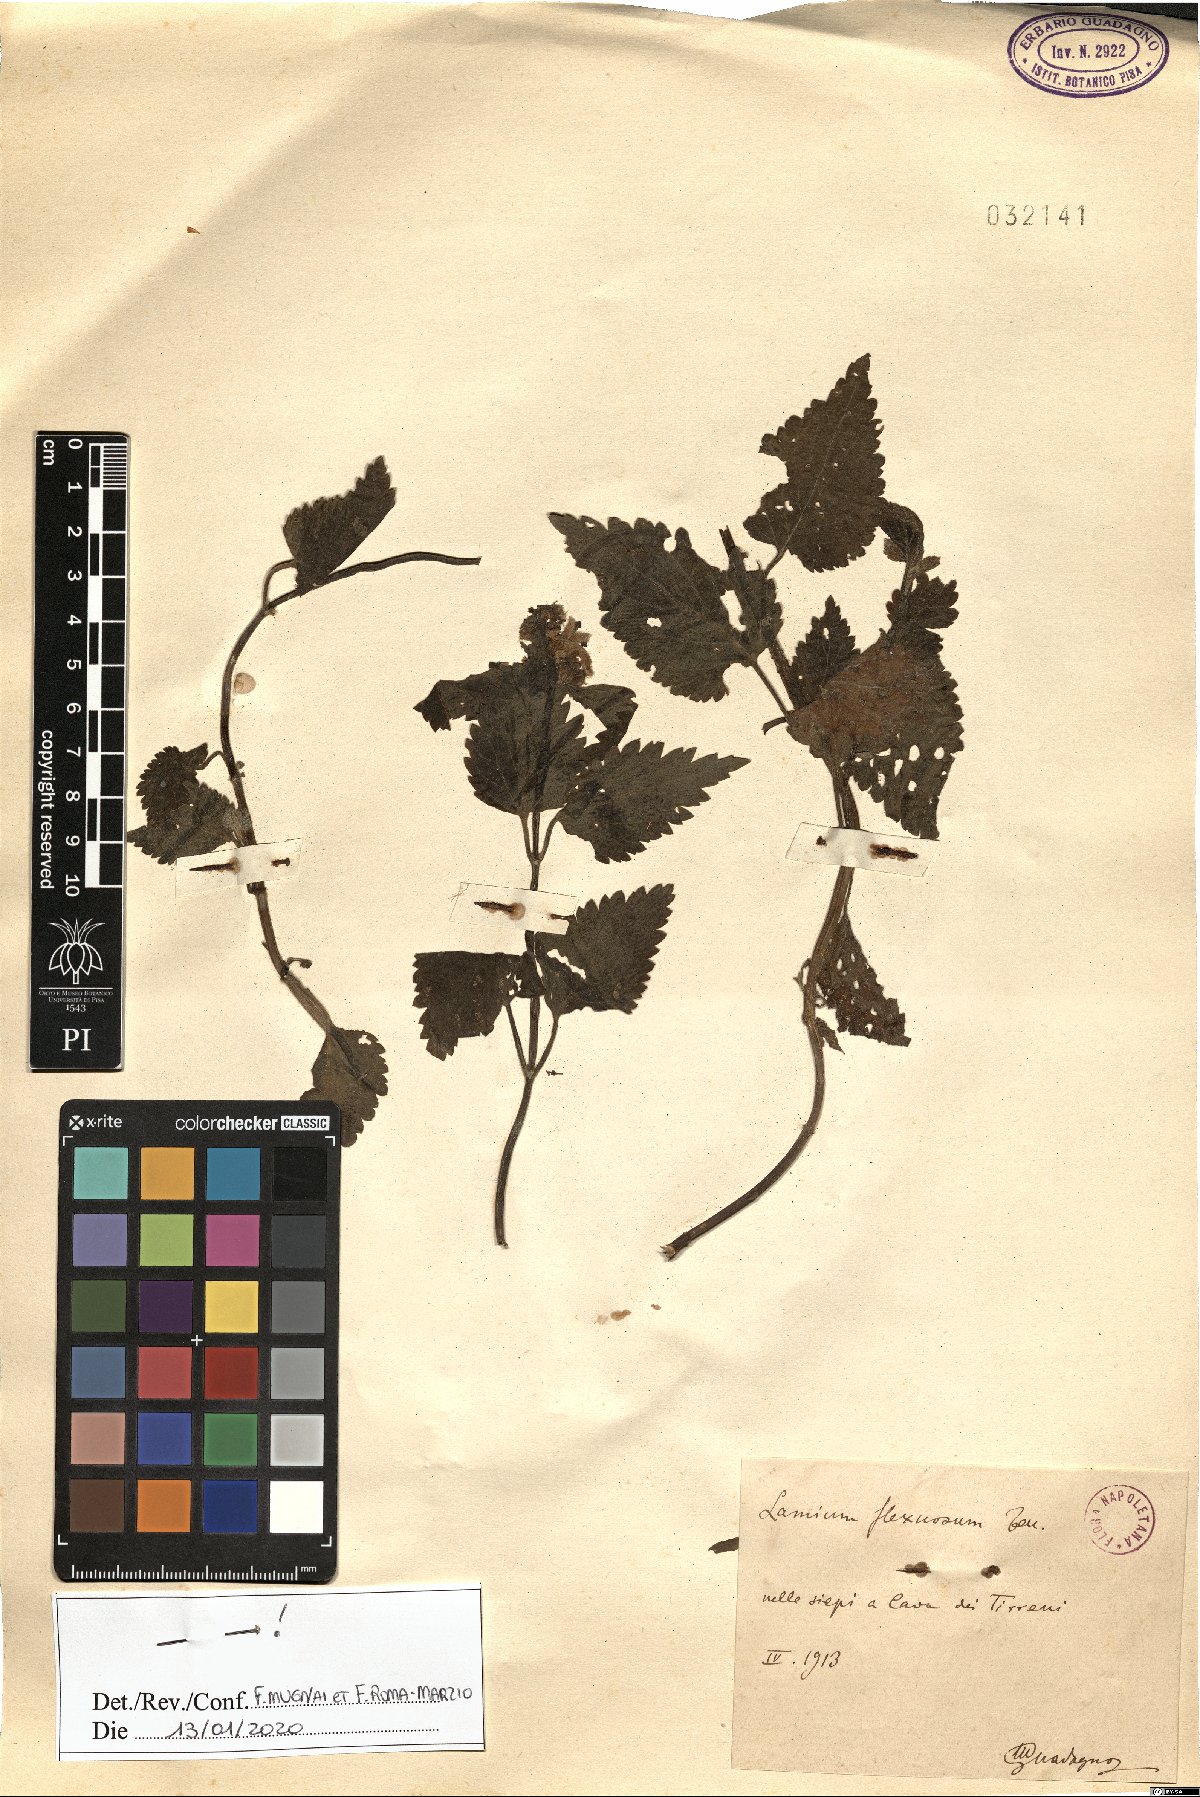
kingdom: Plantae
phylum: Tracheophyta
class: Magnoliopsida
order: Lamiales
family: Lamiaceae
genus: Lamium
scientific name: Lamium flexuosum
